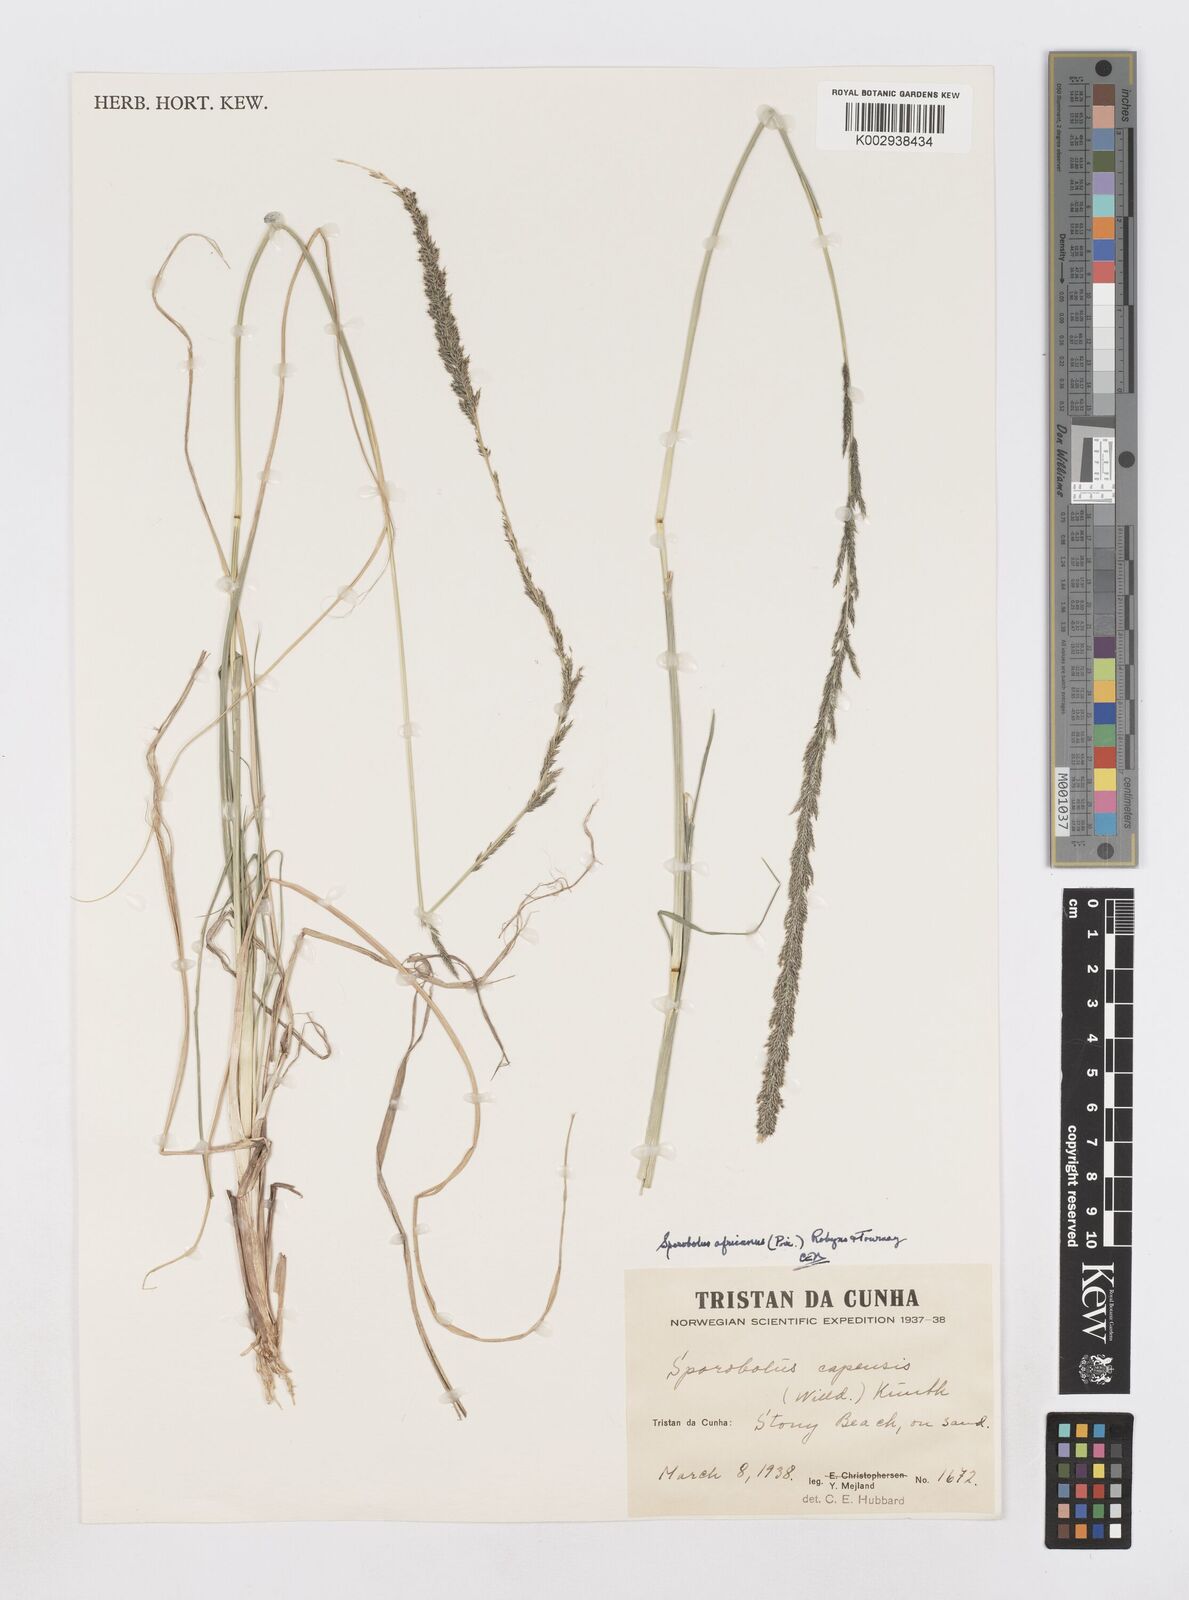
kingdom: Plantae
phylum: Tracheophyta
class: Liliopsida
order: Poales
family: Poaceae
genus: Sporobolus
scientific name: Sporobolus africanus
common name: African dropseed
